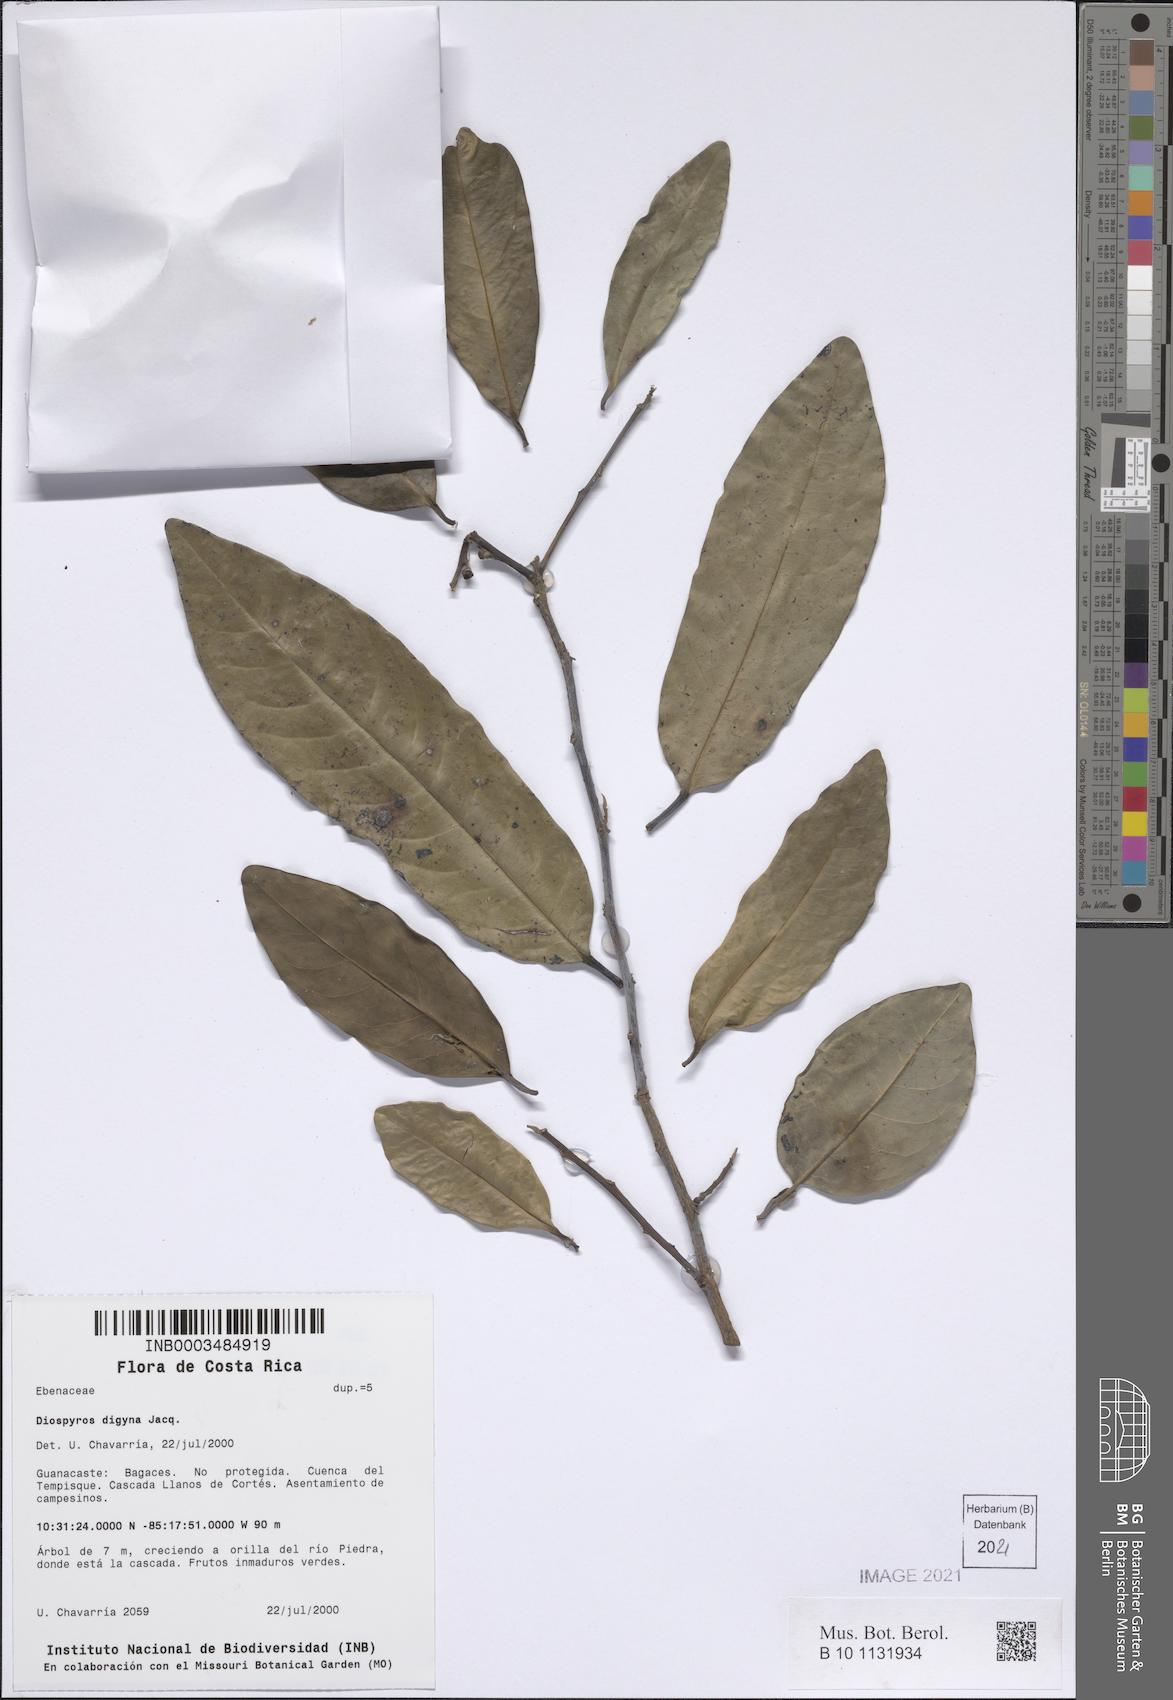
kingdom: Plantae
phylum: Tracheophyta
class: Magnoliopsida
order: Ericales
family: Ebenaceae
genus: Diospyros
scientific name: Diospyros nigra
